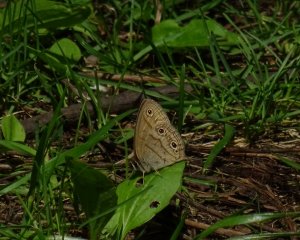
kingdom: Animalia
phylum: Arthropoda
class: Insecta
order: Lepidoptera
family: Nymphalidae
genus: Euptychia
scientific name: Euptychia cymela
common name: Little Wood Satyr
